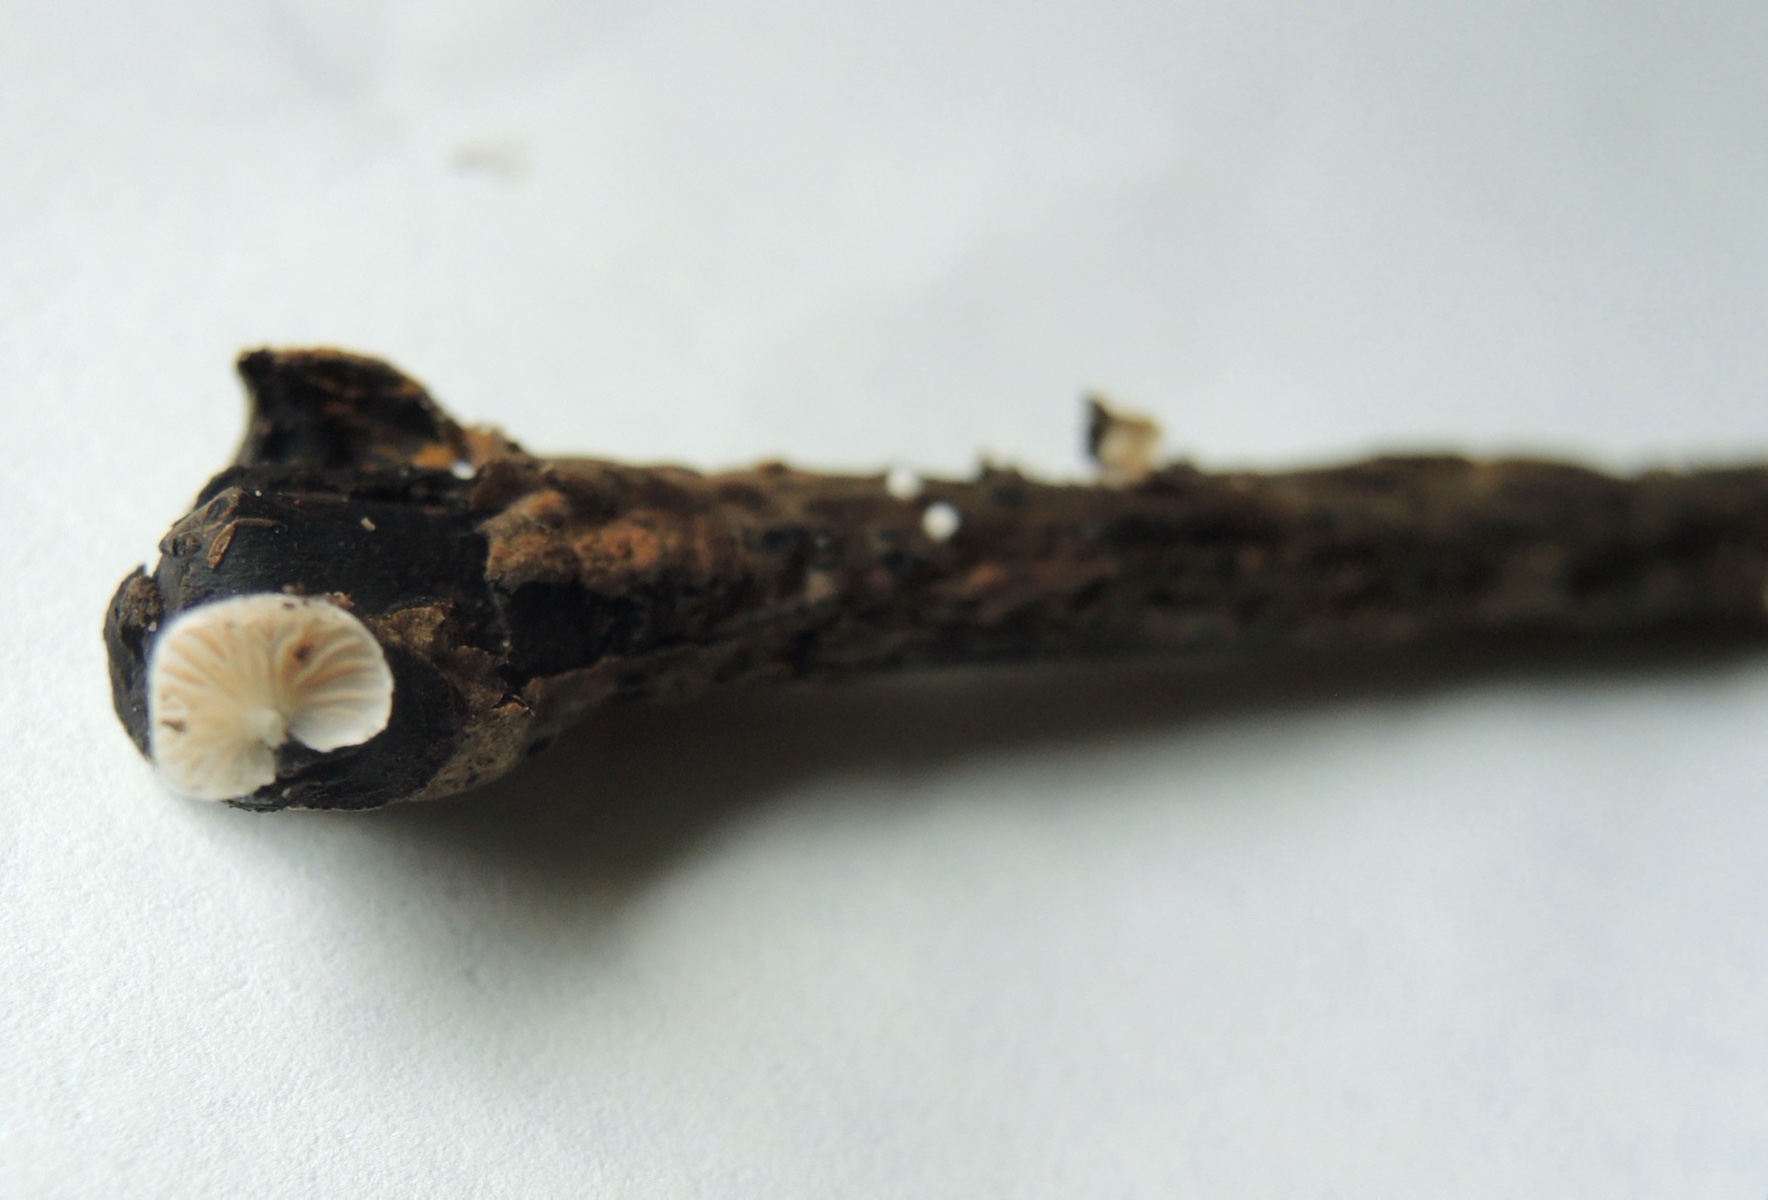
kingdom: Fungi
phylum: Basidiomycota
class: Agaricomycetes
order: Agaricales
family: Crepidotaceae
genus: Crepidotus
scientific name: Crepidotus cesatii
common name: almindelig muslingesvamp
